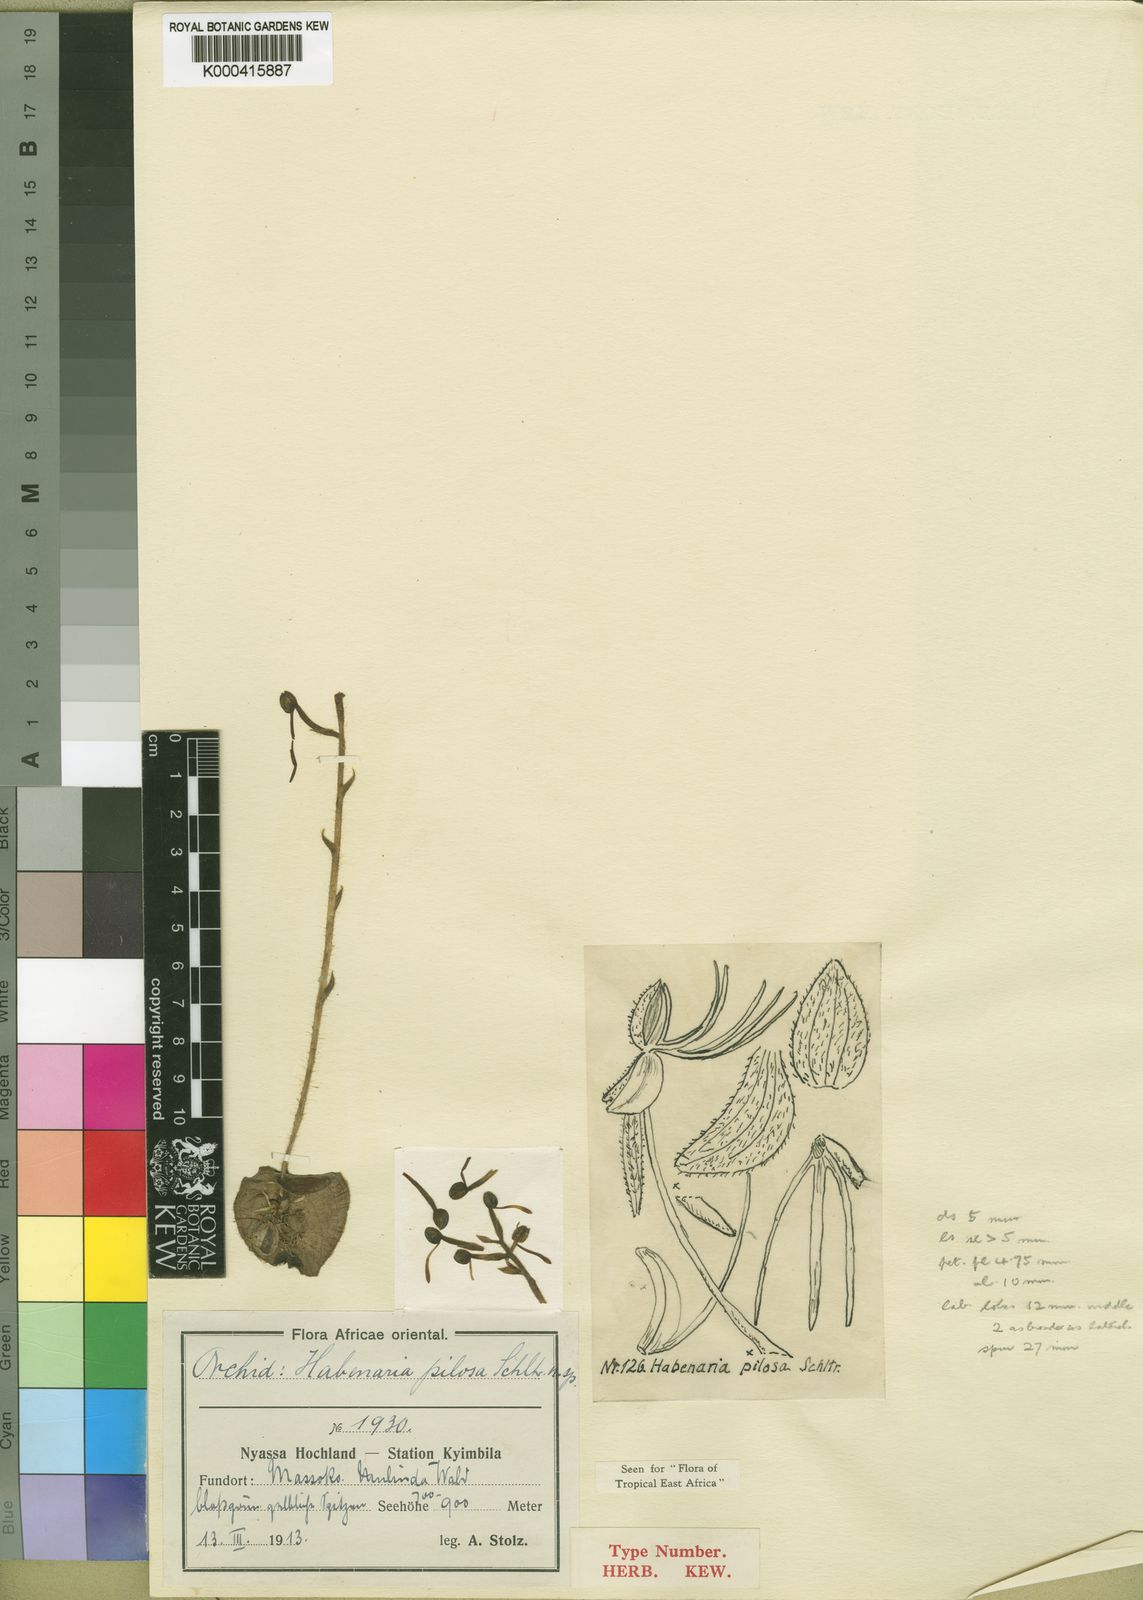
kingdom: Plantae
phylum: Tracheophyta
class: Liliopsida
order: Asparagales
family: Orchidaceae
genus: Habenaria
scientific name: Habenaria pilosa
